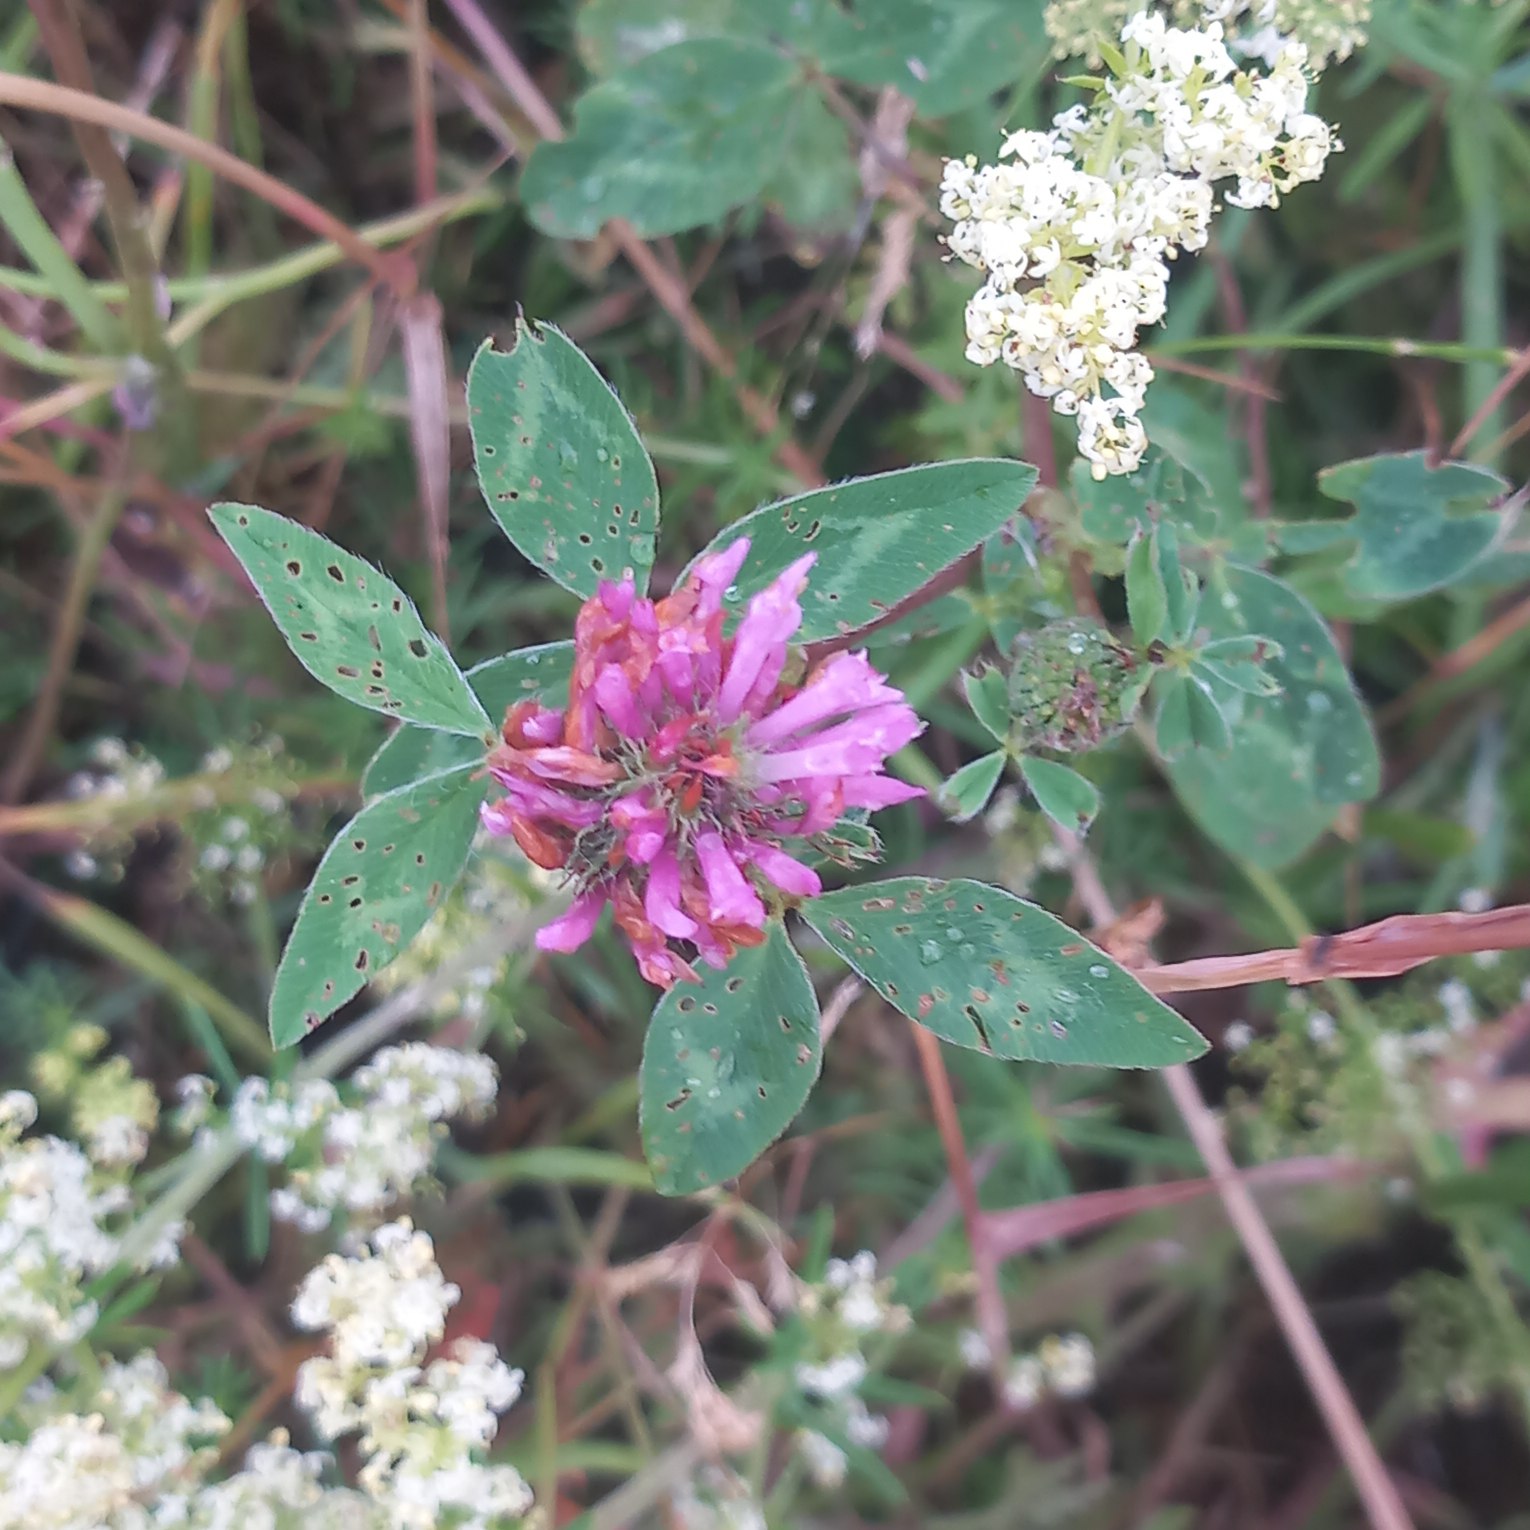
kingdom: Plantae
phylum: Tracheophyta
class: Magnoliopsida
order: Fabales
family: Fabaceae
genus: Trifolium
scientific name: Trifolium pratense
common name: Rød-kløver
